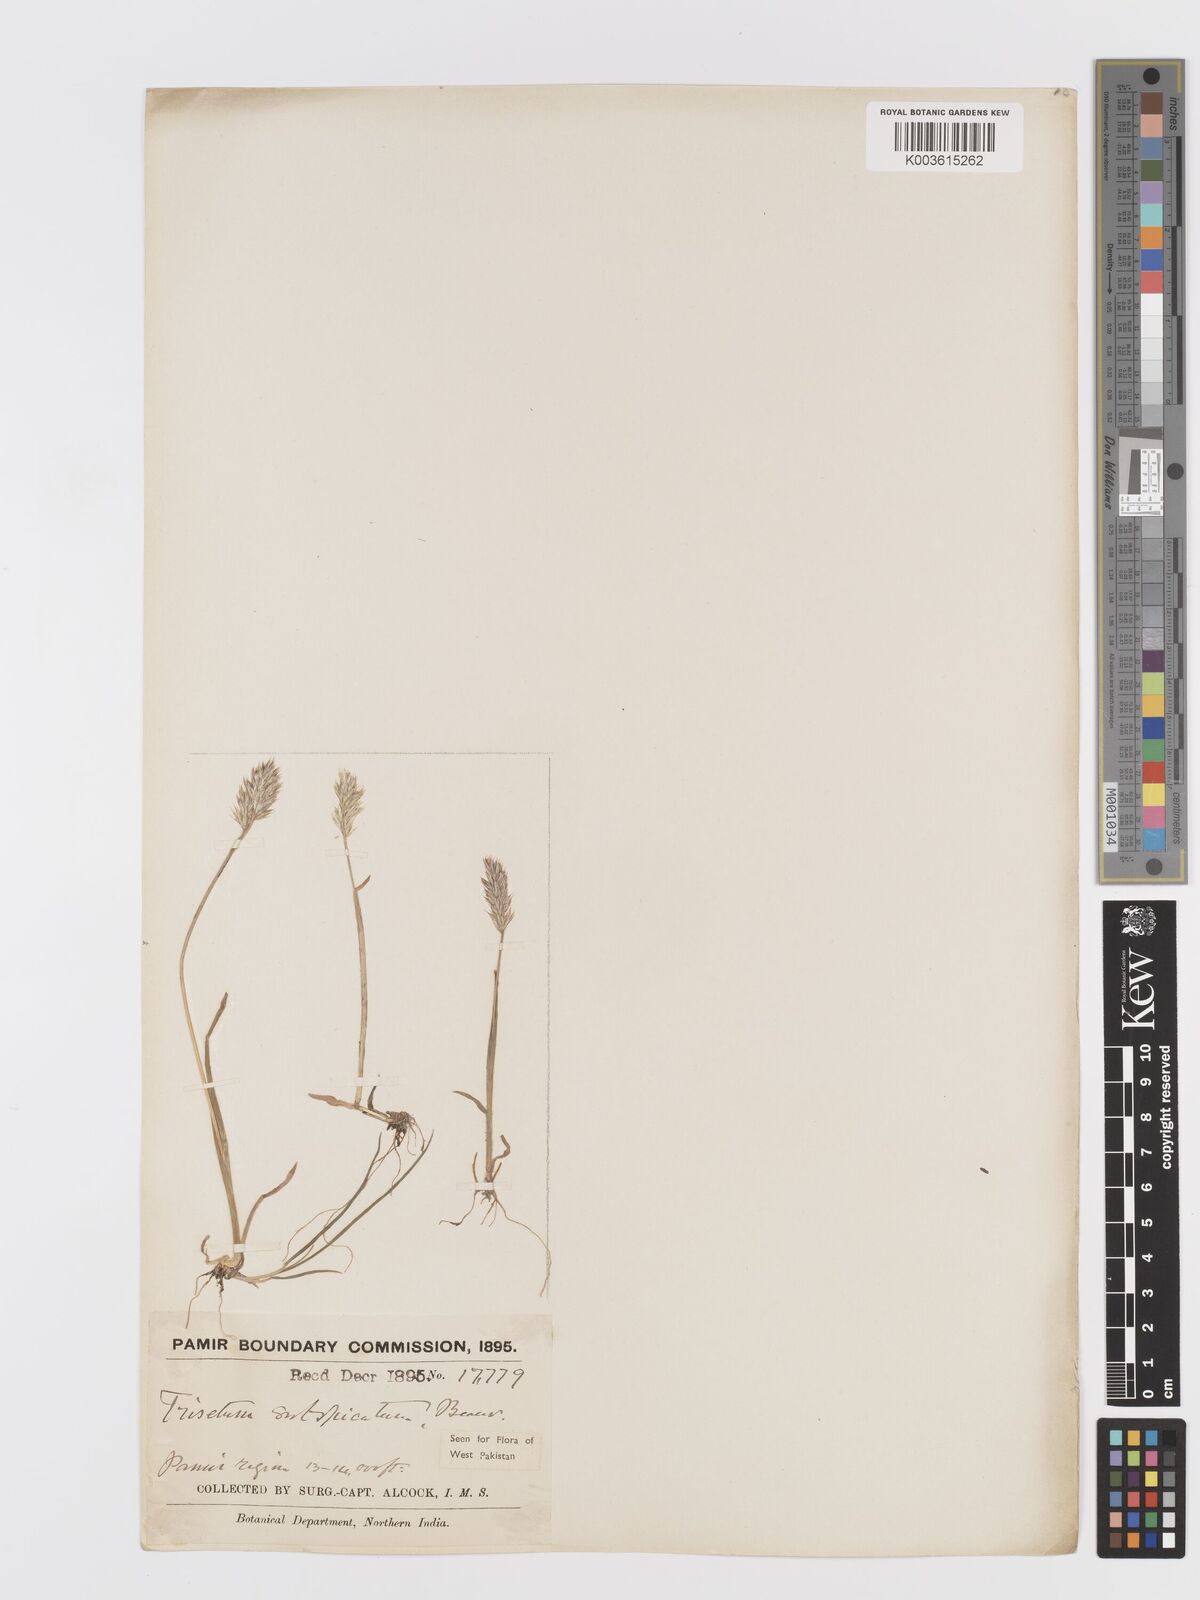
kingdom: Plantae
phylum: Tracheophyta
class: Liliopsida
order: Poales
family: Poaceae
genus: Koeleria
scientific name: Koeleria spicata
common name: Mountain trisetum
